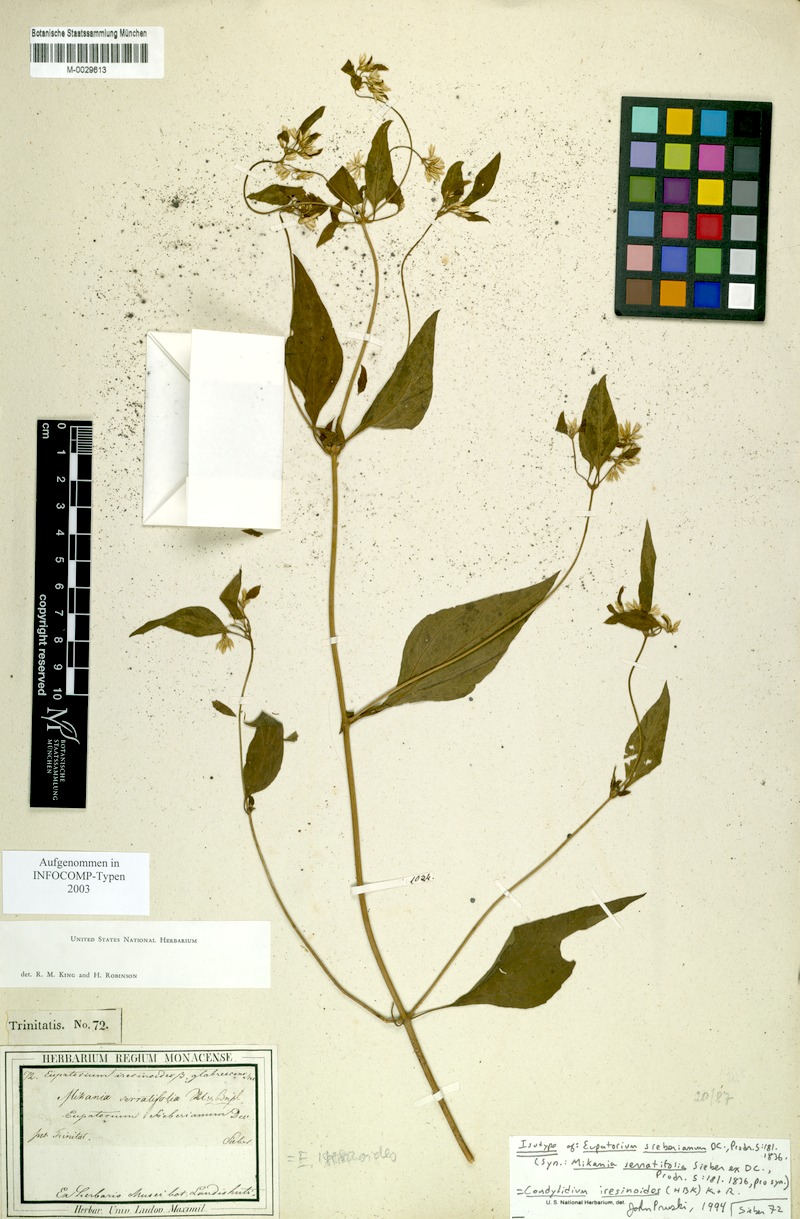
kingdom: Plantae
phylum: Tracheophyta
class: Magnoliopsida
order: Asterales
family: Asteraceae
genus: Condylidium
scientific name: Condylidium iresinoides
